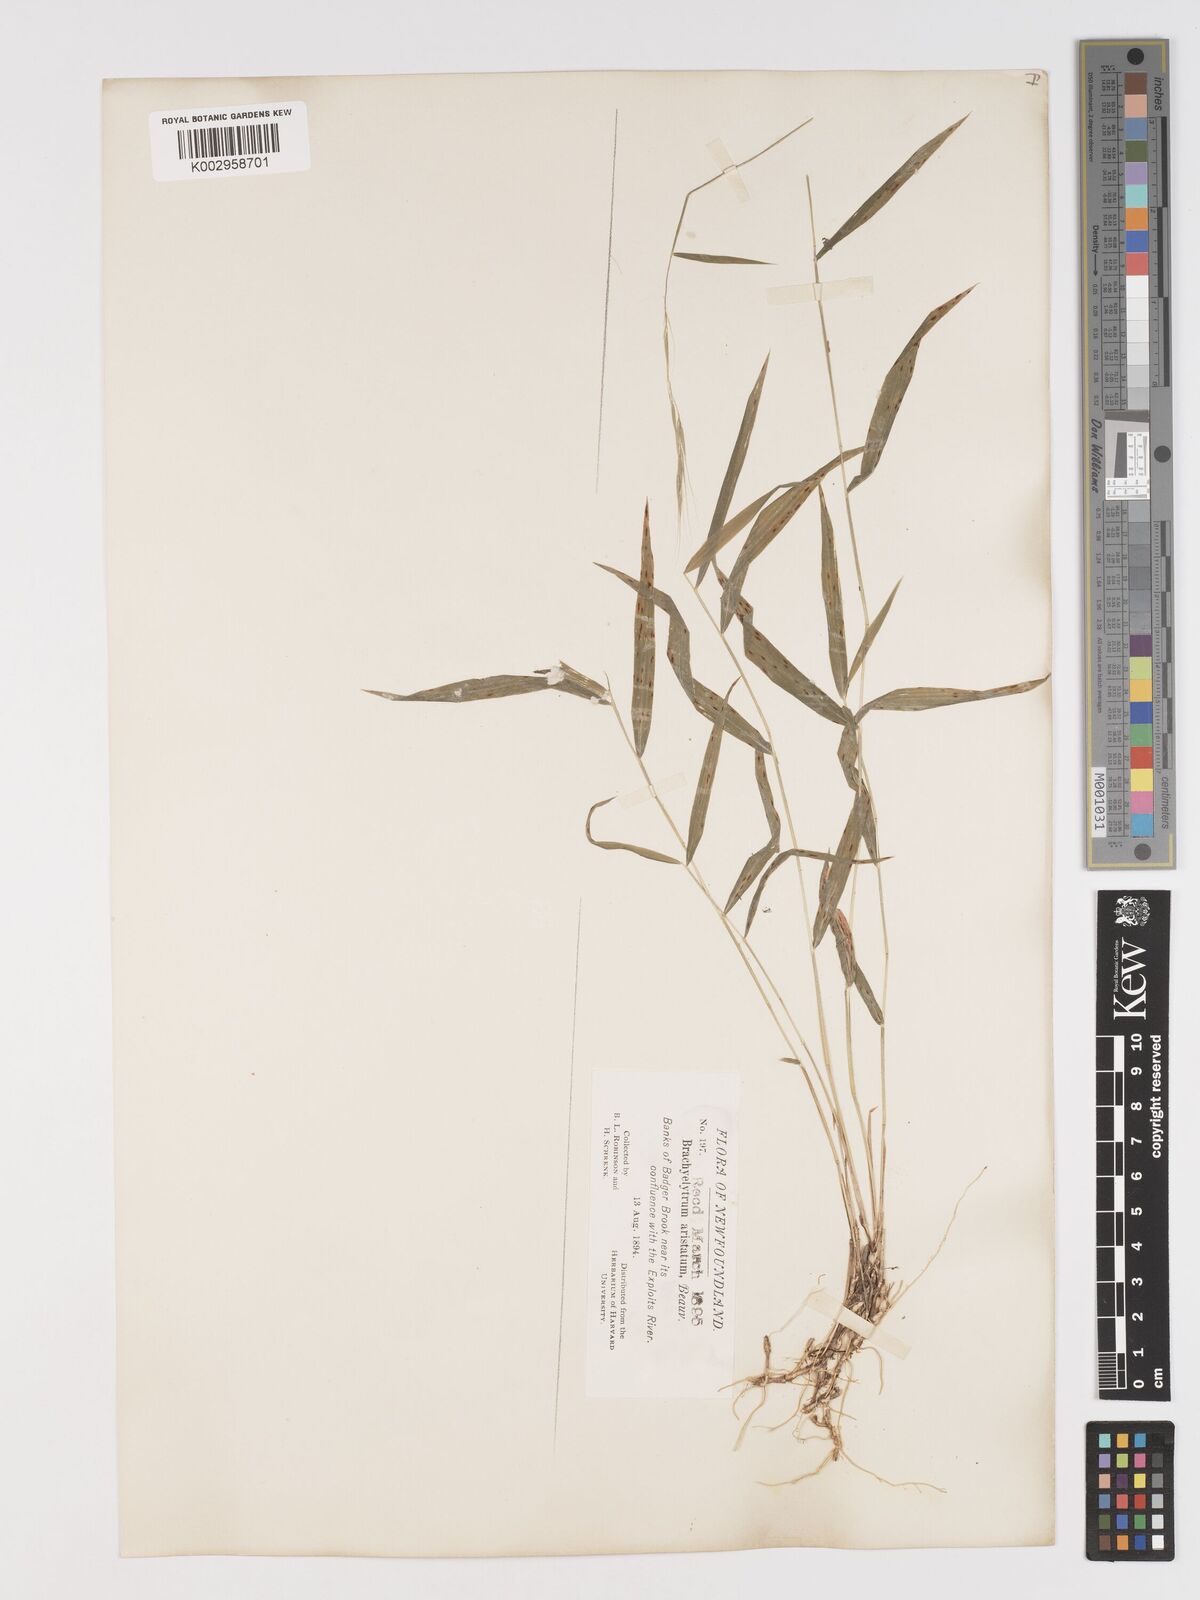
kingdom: Plantae
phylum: Tracheophyta
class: Liliopsida
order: Poales
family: Poaceae
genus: Brachyelytrum
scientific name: Brachyelytrum aristosum
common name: Northern shorthusk
